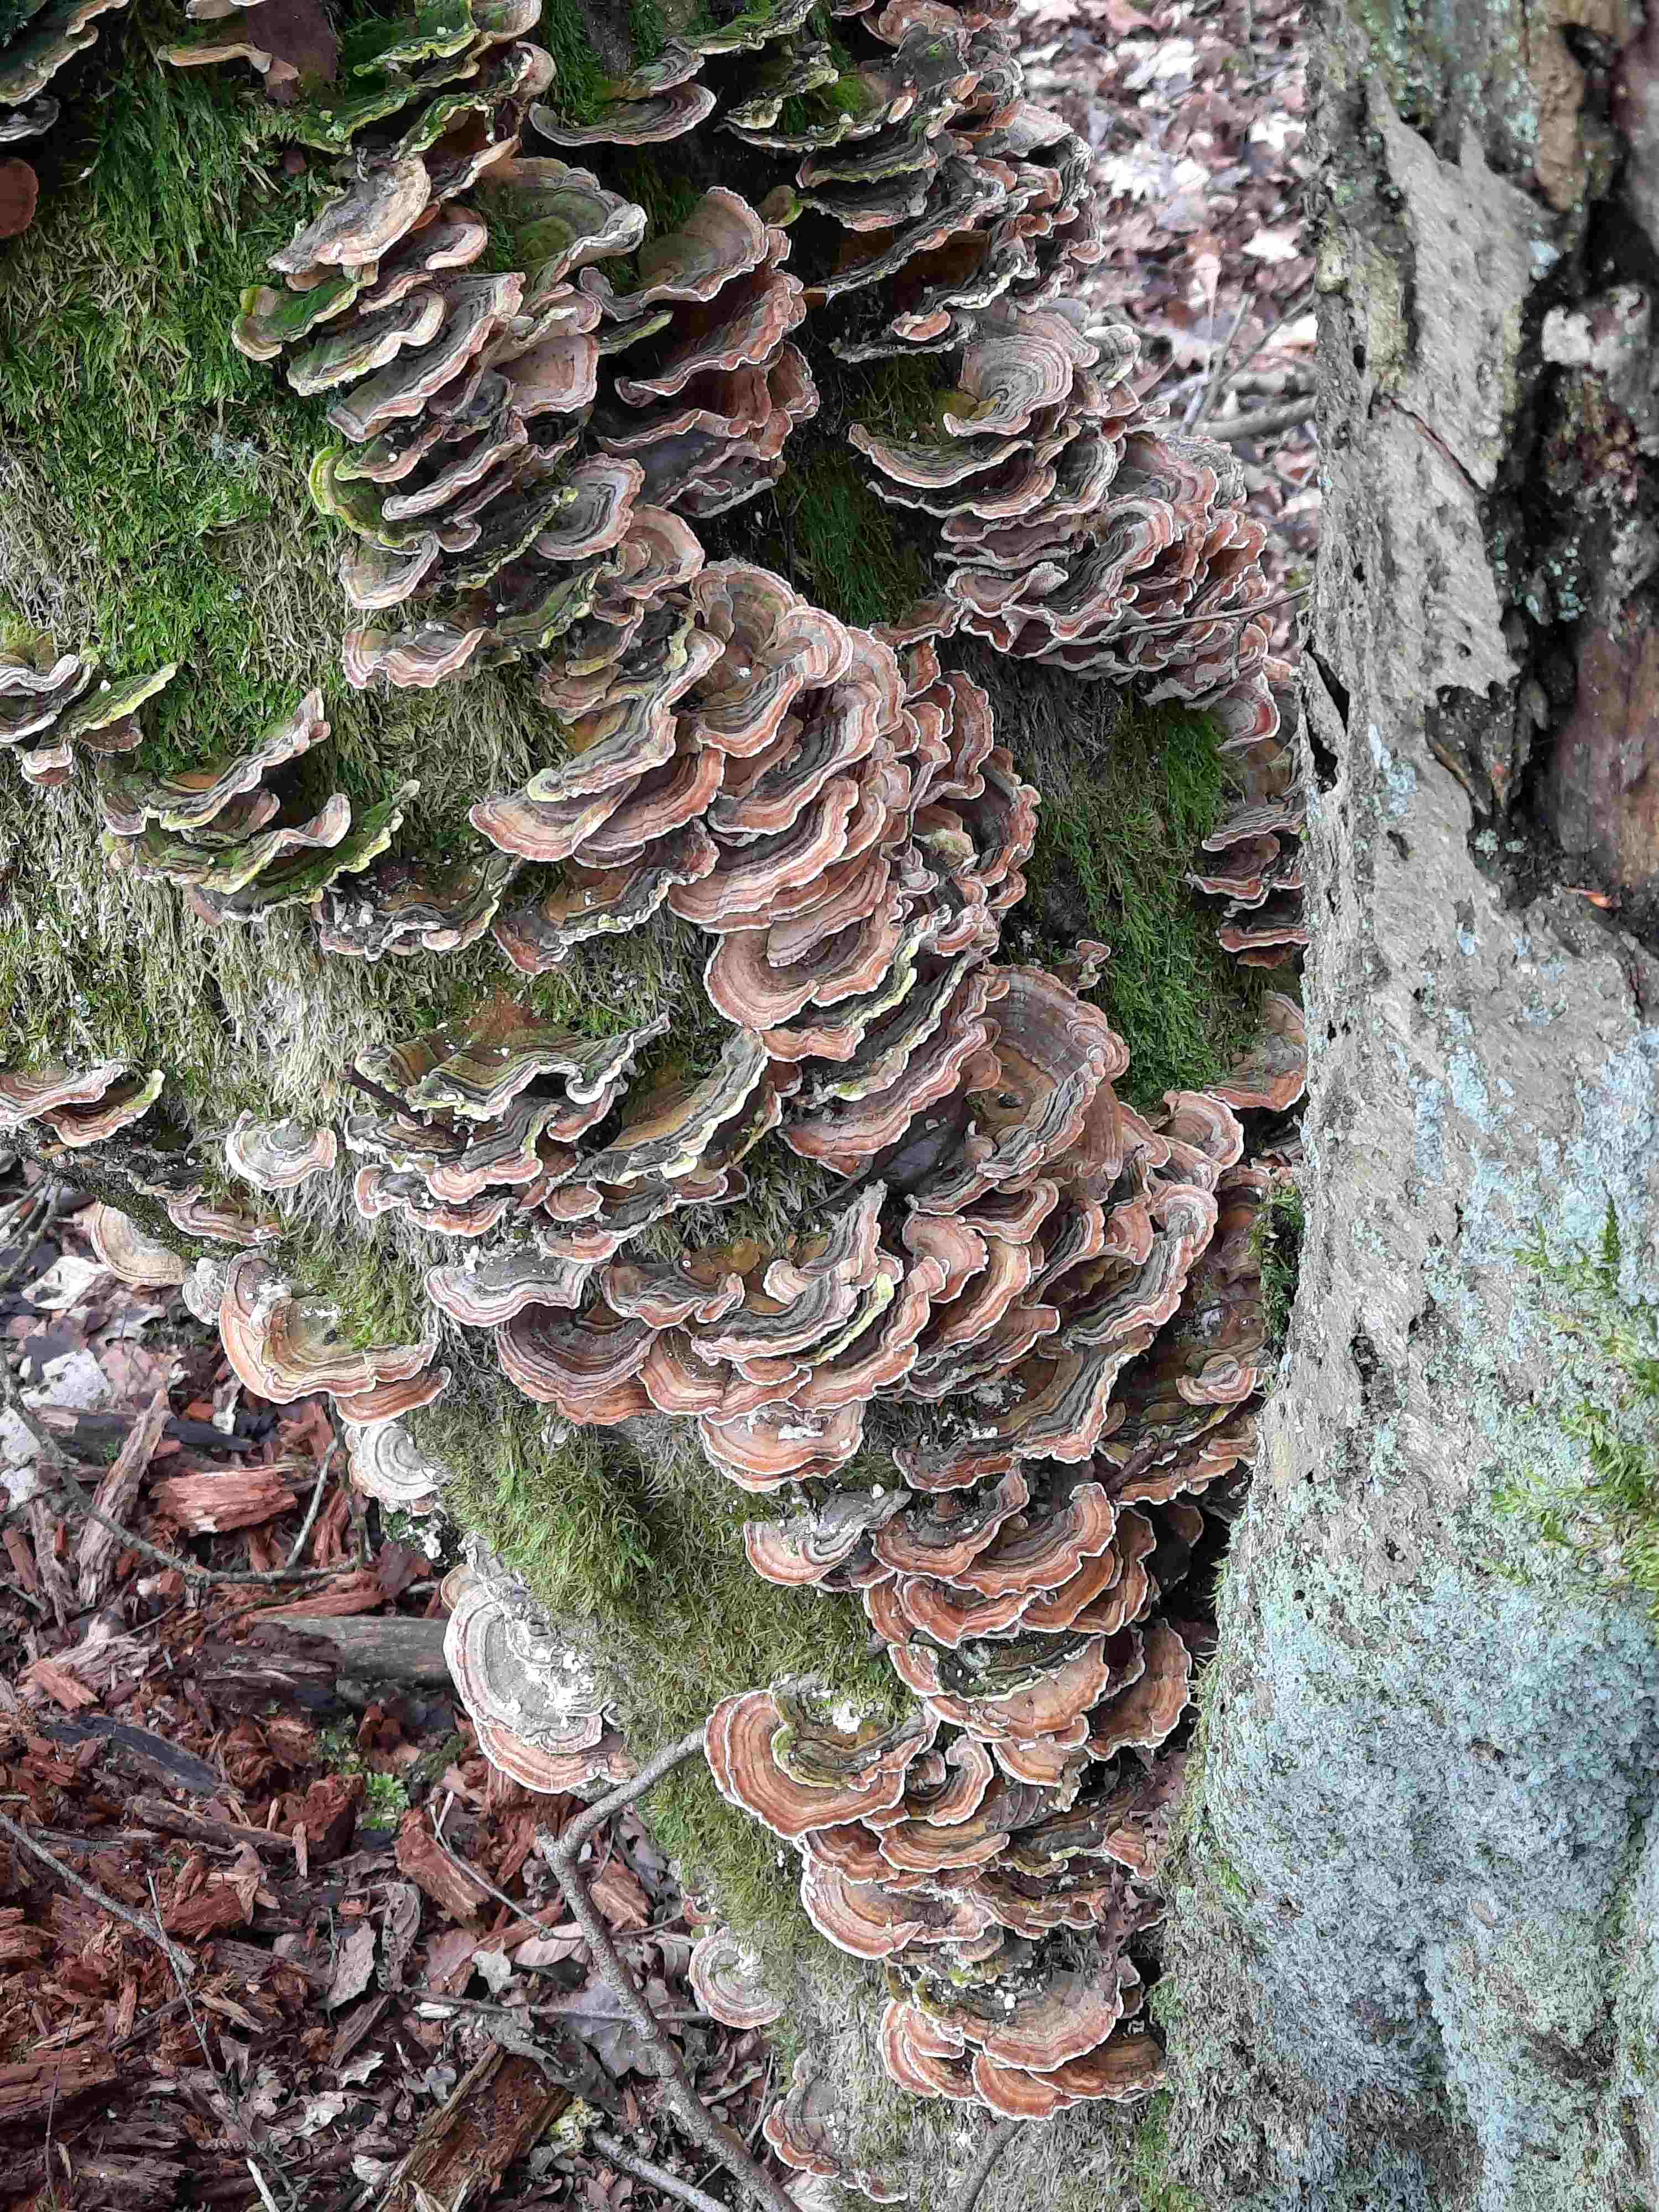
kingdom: Fungi
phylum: Basidiomycota
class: Agaricomycetes
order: Polyporales
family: Polyporaceae
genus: Trametes
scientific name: Trametes versicolor
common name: broget læderporesvamp
